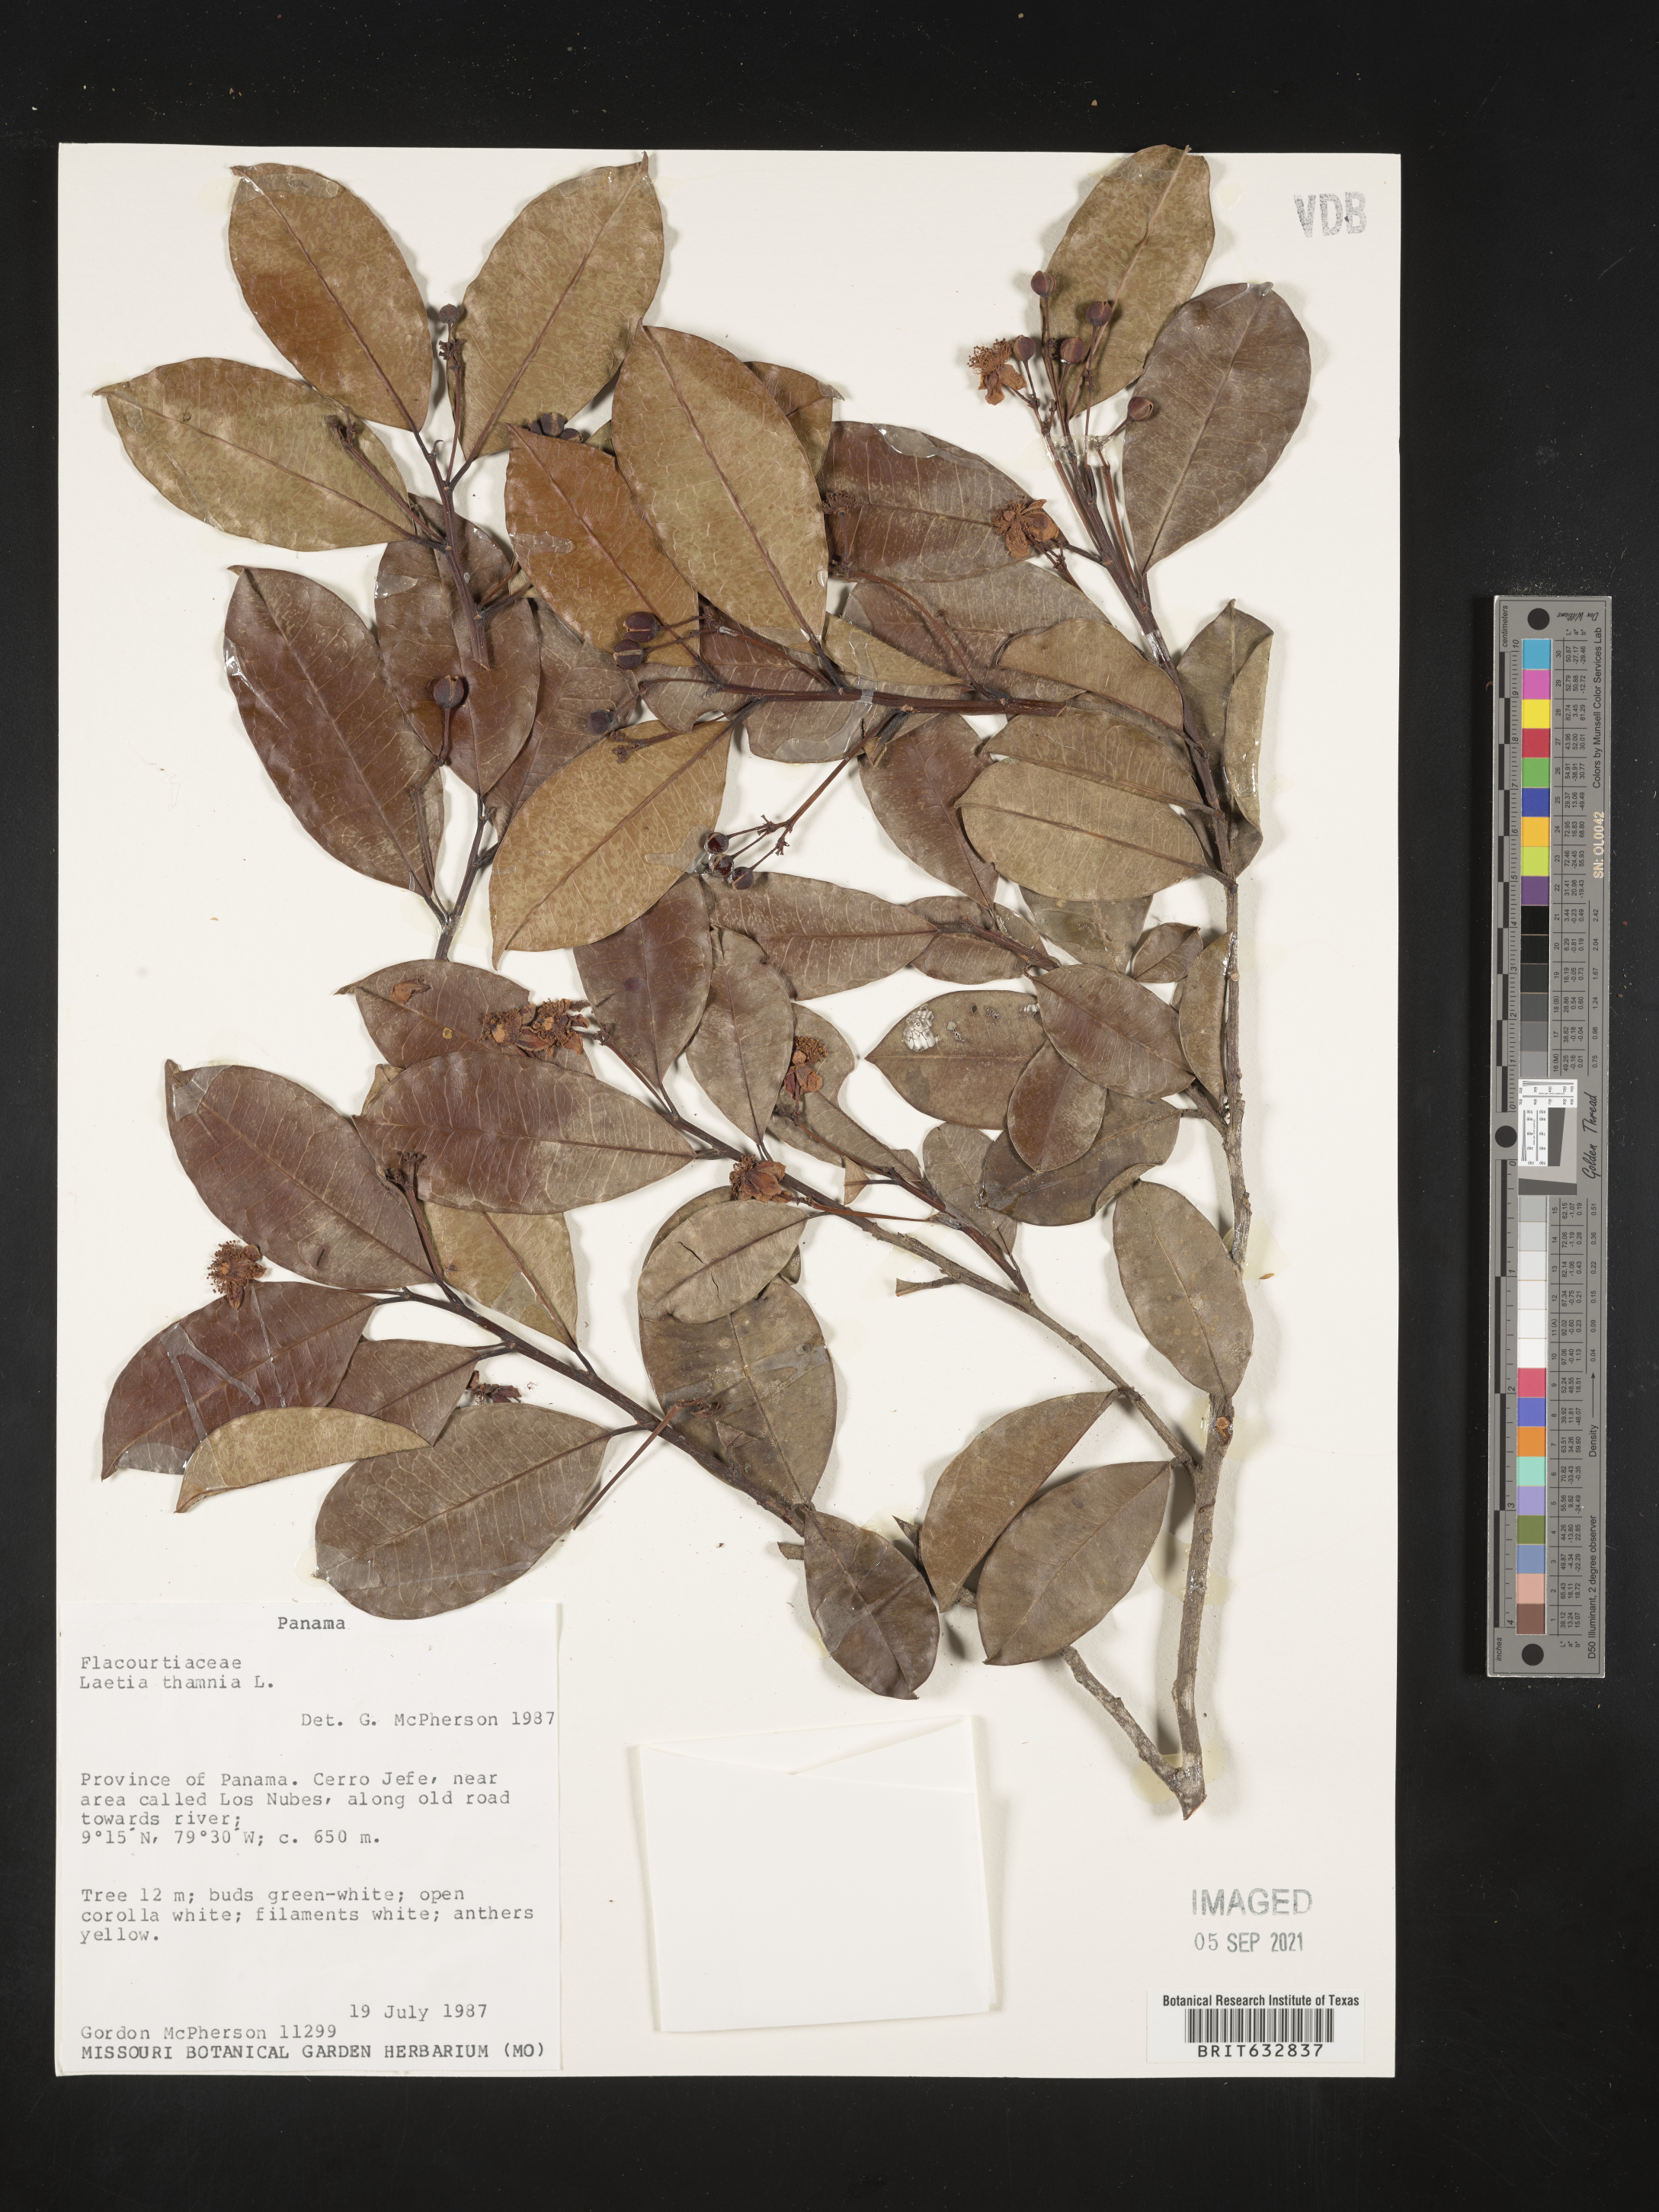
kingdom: Plantae
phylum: Tracheophyta
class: Magnoliopsida
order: Malpighiales
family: Flacourtiaceae
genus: Laetia
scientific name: Laetia
